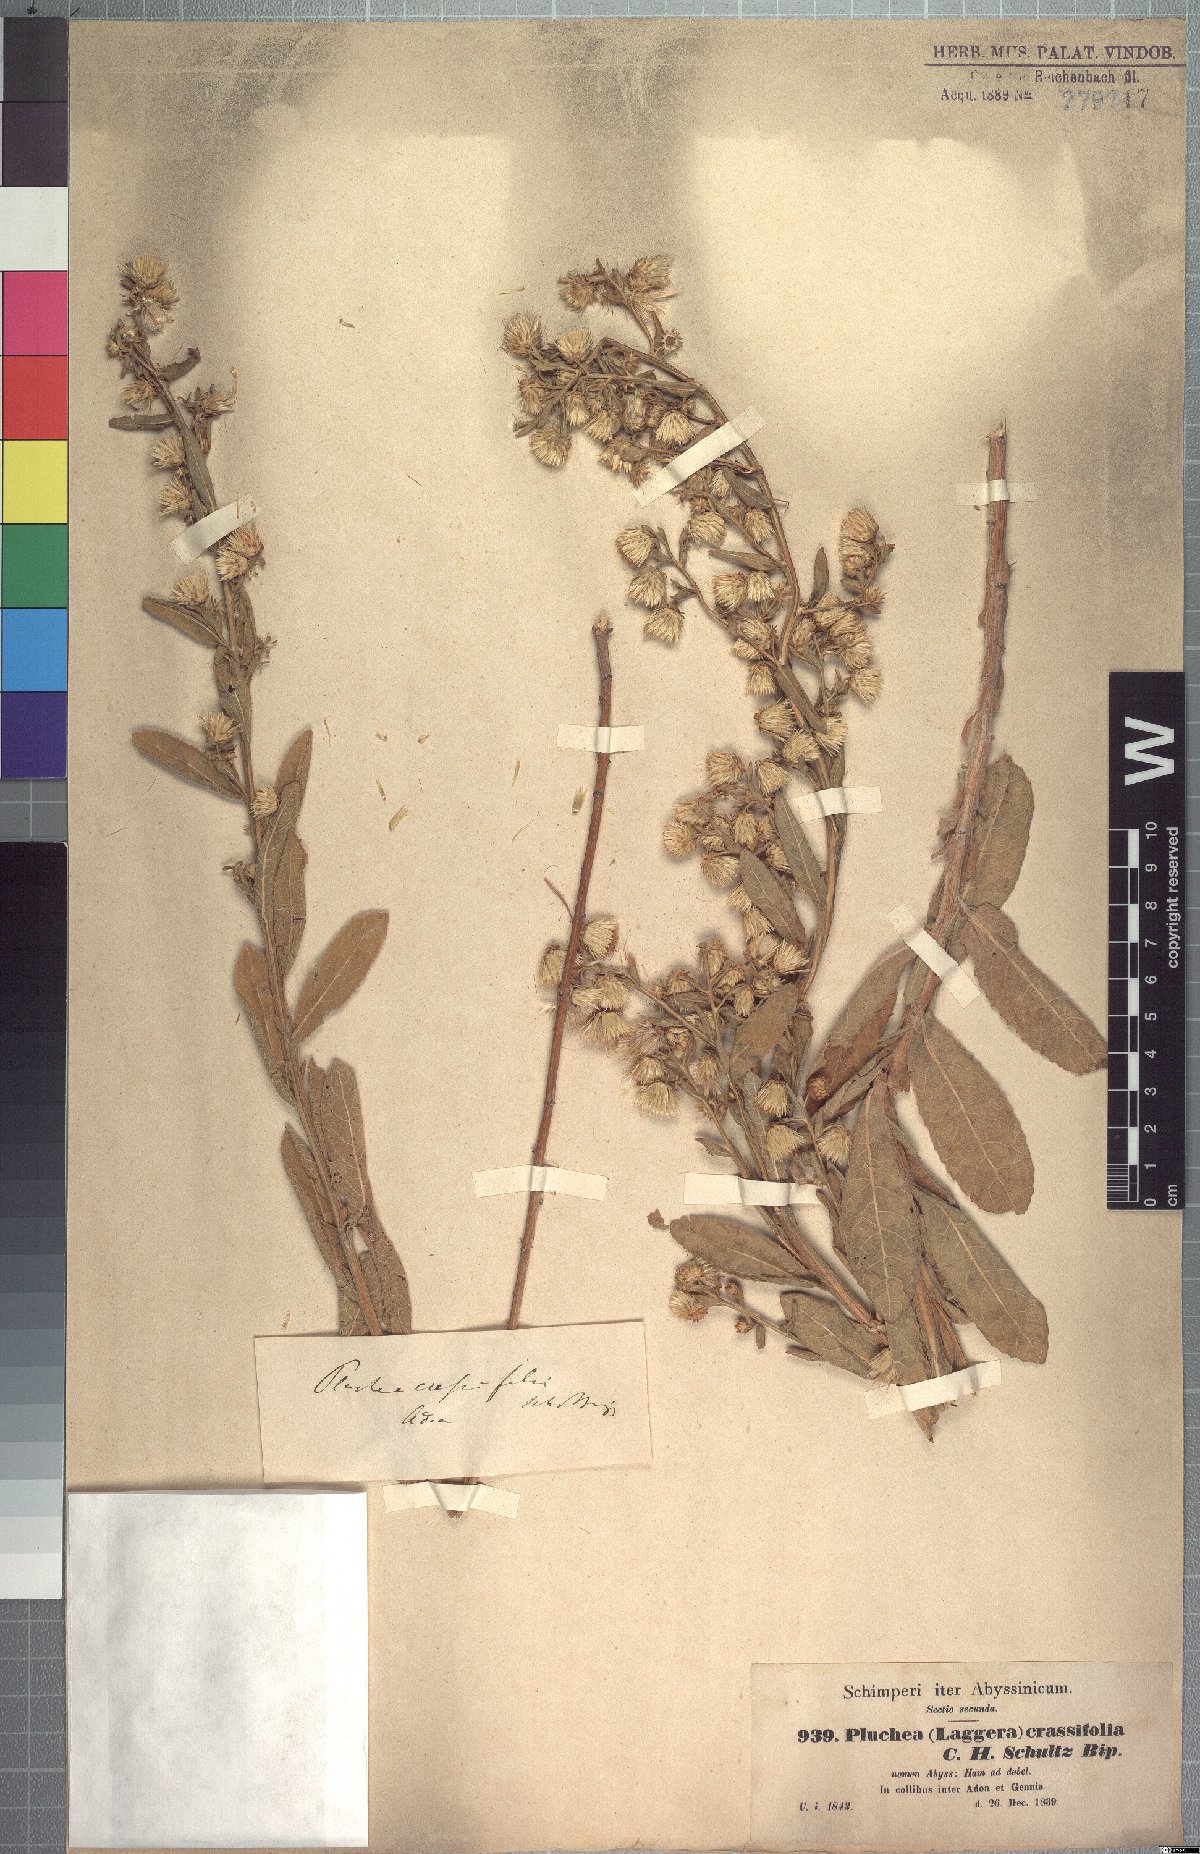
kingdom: Plantae
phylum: Tracheophyta
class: Magnoliopsida
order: Asterales
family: Asteraceae
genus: Laggera
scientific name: Laggera crassifolia
